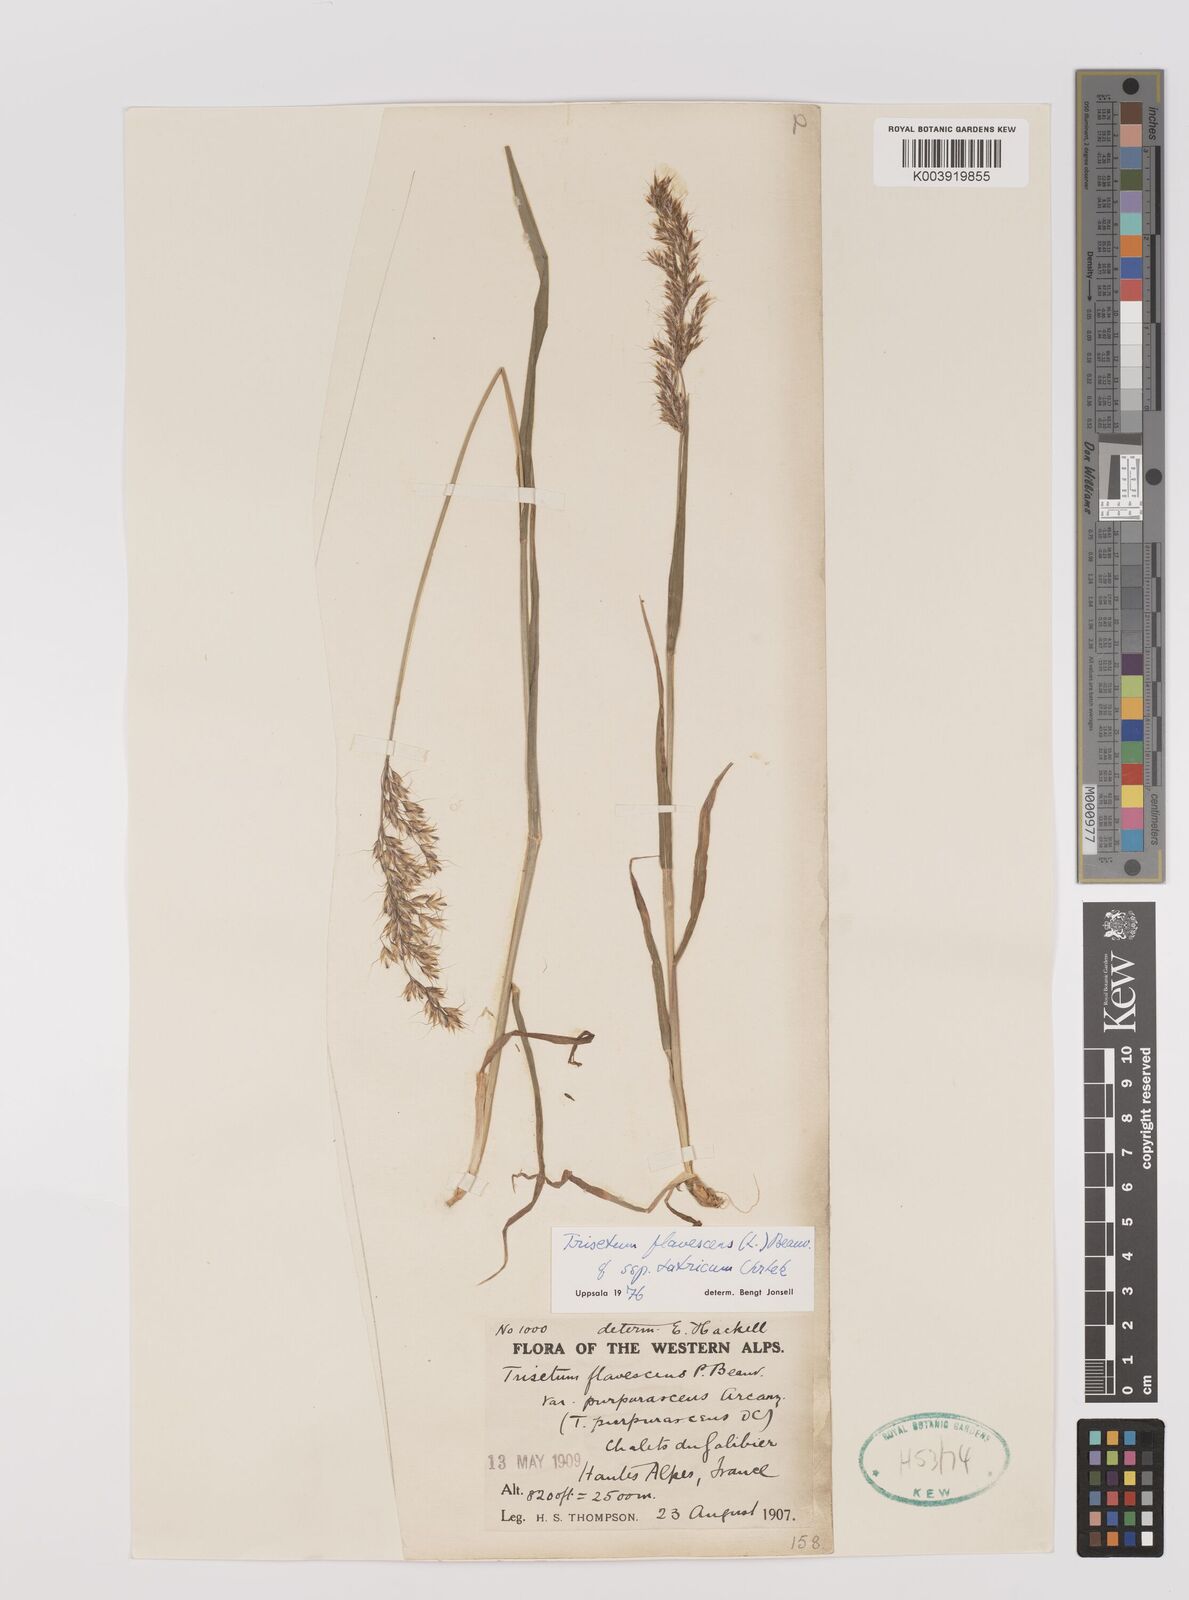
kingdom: Plantae
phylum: Tracheophyta
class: Liliopsida
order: Poales
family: Poaceae
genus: Trisetum
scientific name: Trisetum flavescens
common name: Yellow oat-grass
